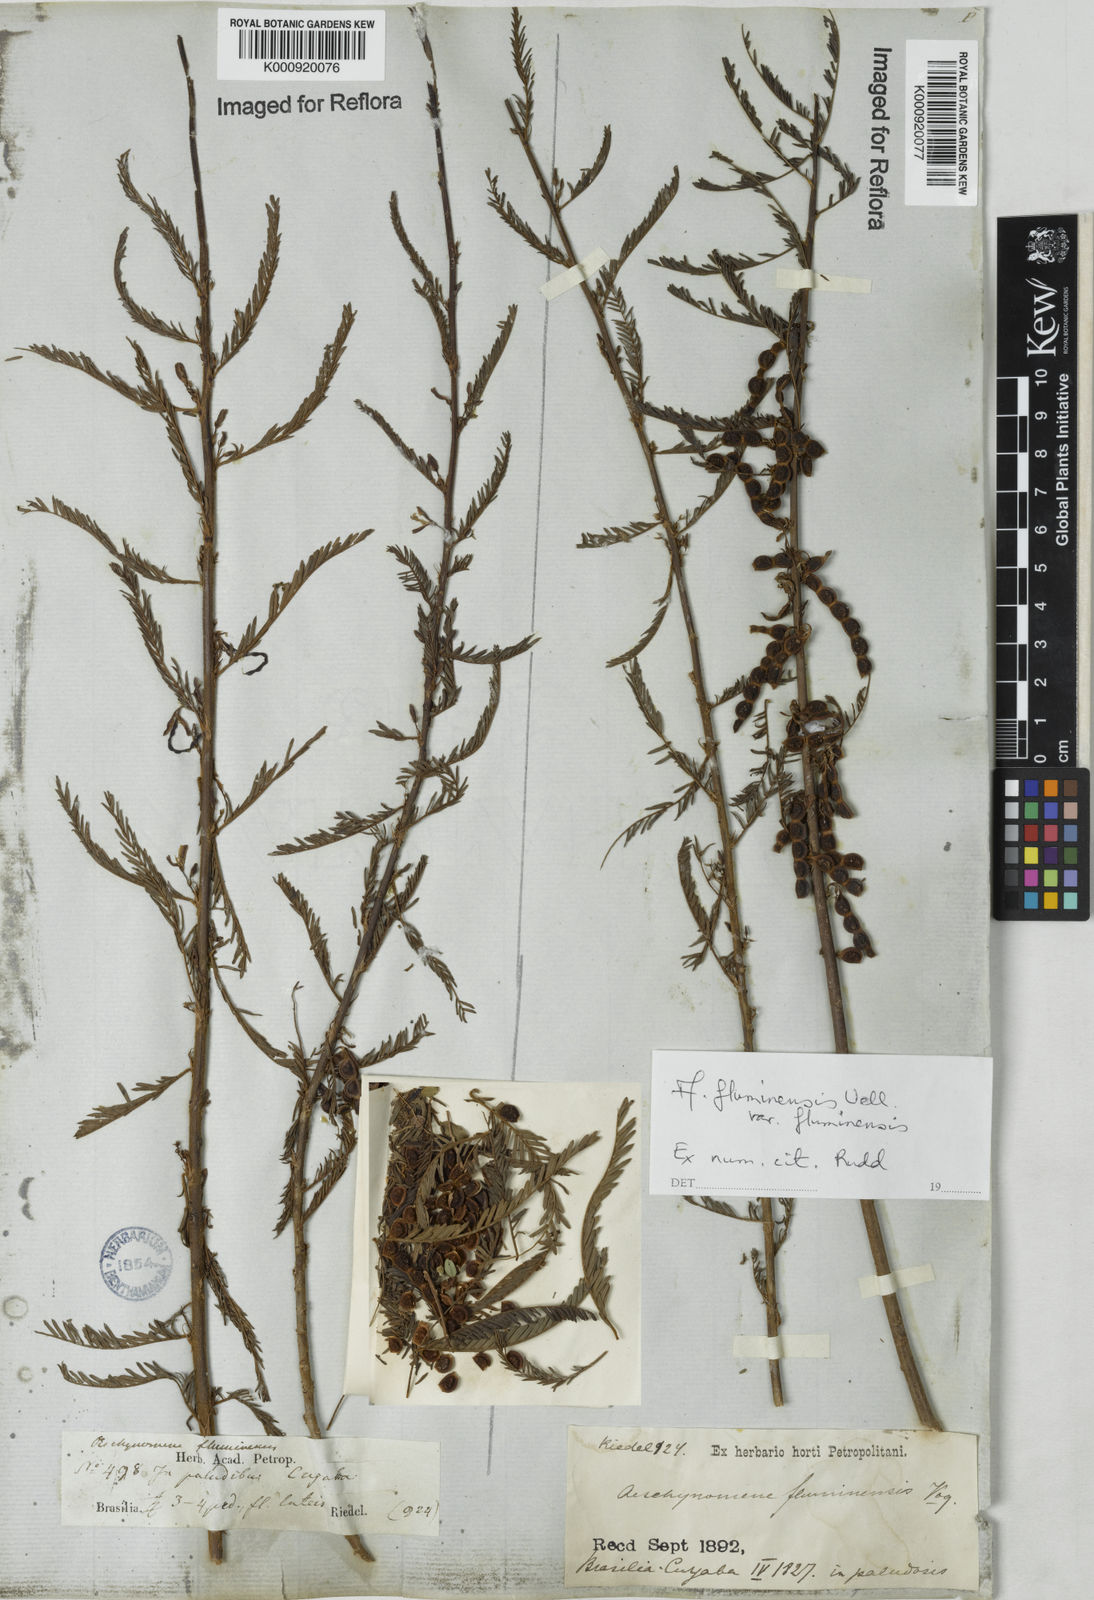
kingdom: Plantae
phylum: Tracheophyta
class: Magnoliopsida
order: Fabales
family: Fabaceae
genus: Aeschynomene
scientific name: Aeschynomene fluminensis
